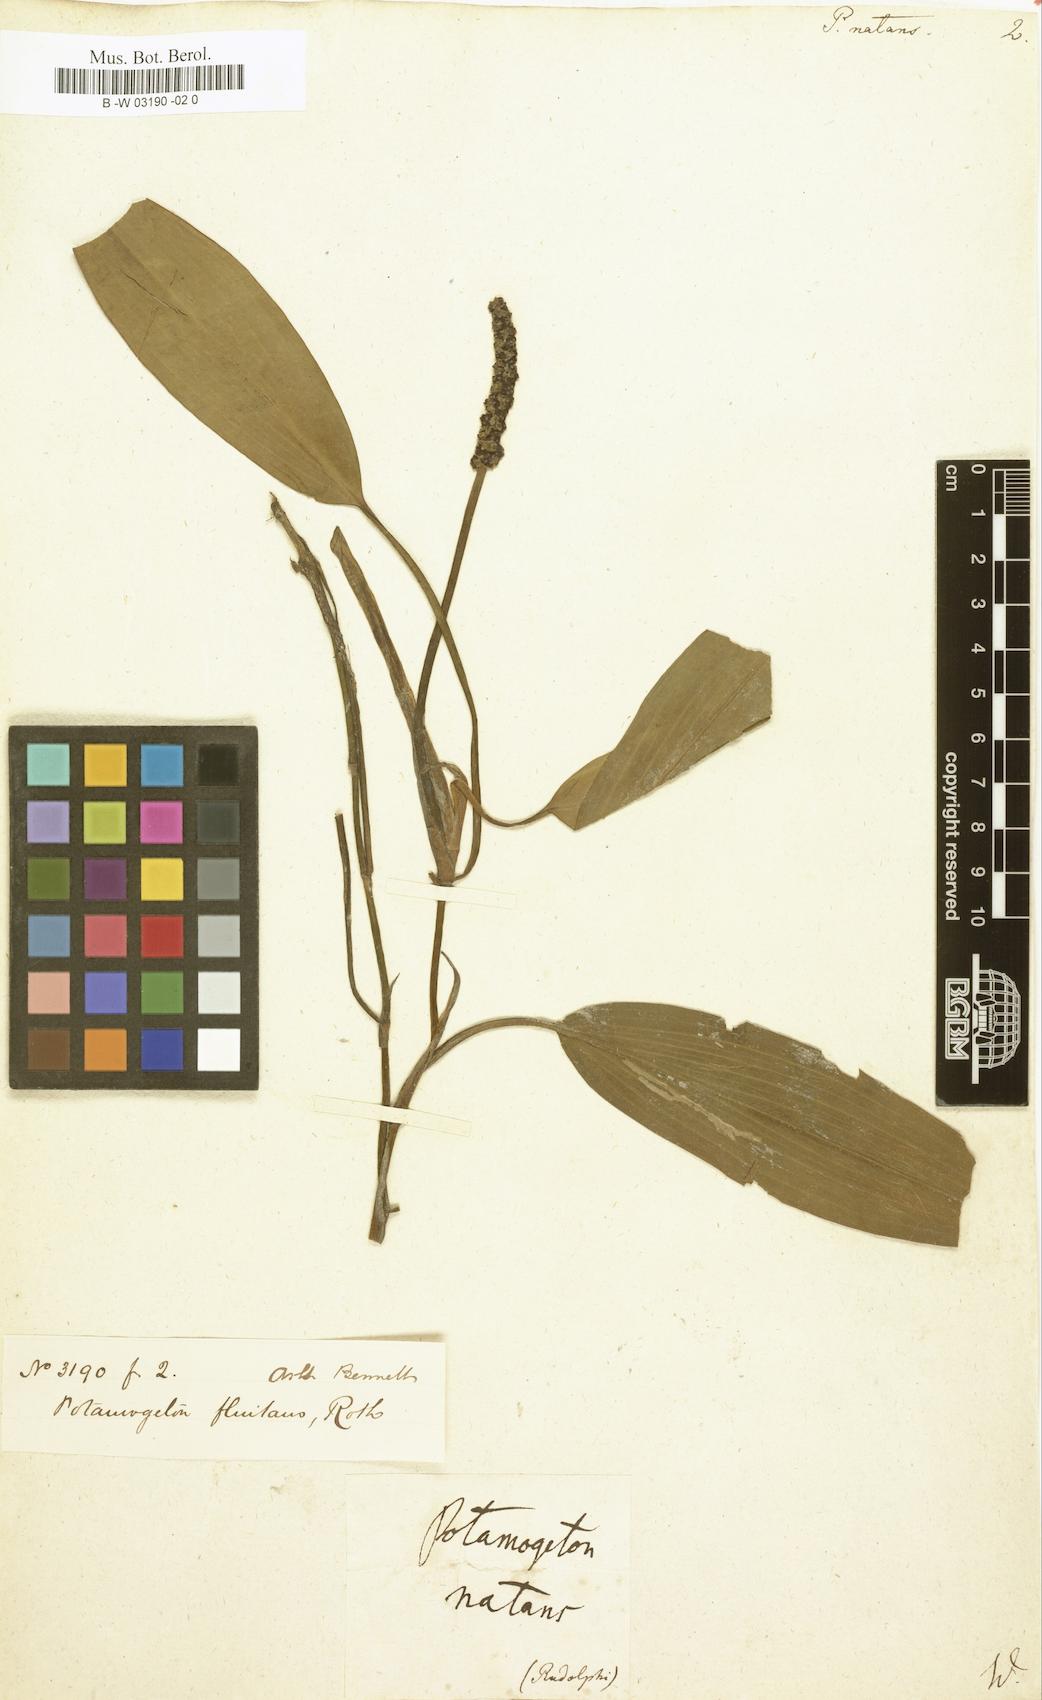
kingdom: Plantae
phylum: Tracheophyta
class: Liliopsida
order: Alismatales
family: Potamogetonaceae
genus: Potamogeton
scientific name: Potamogeton natans
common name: Broad-leaved pondweed
